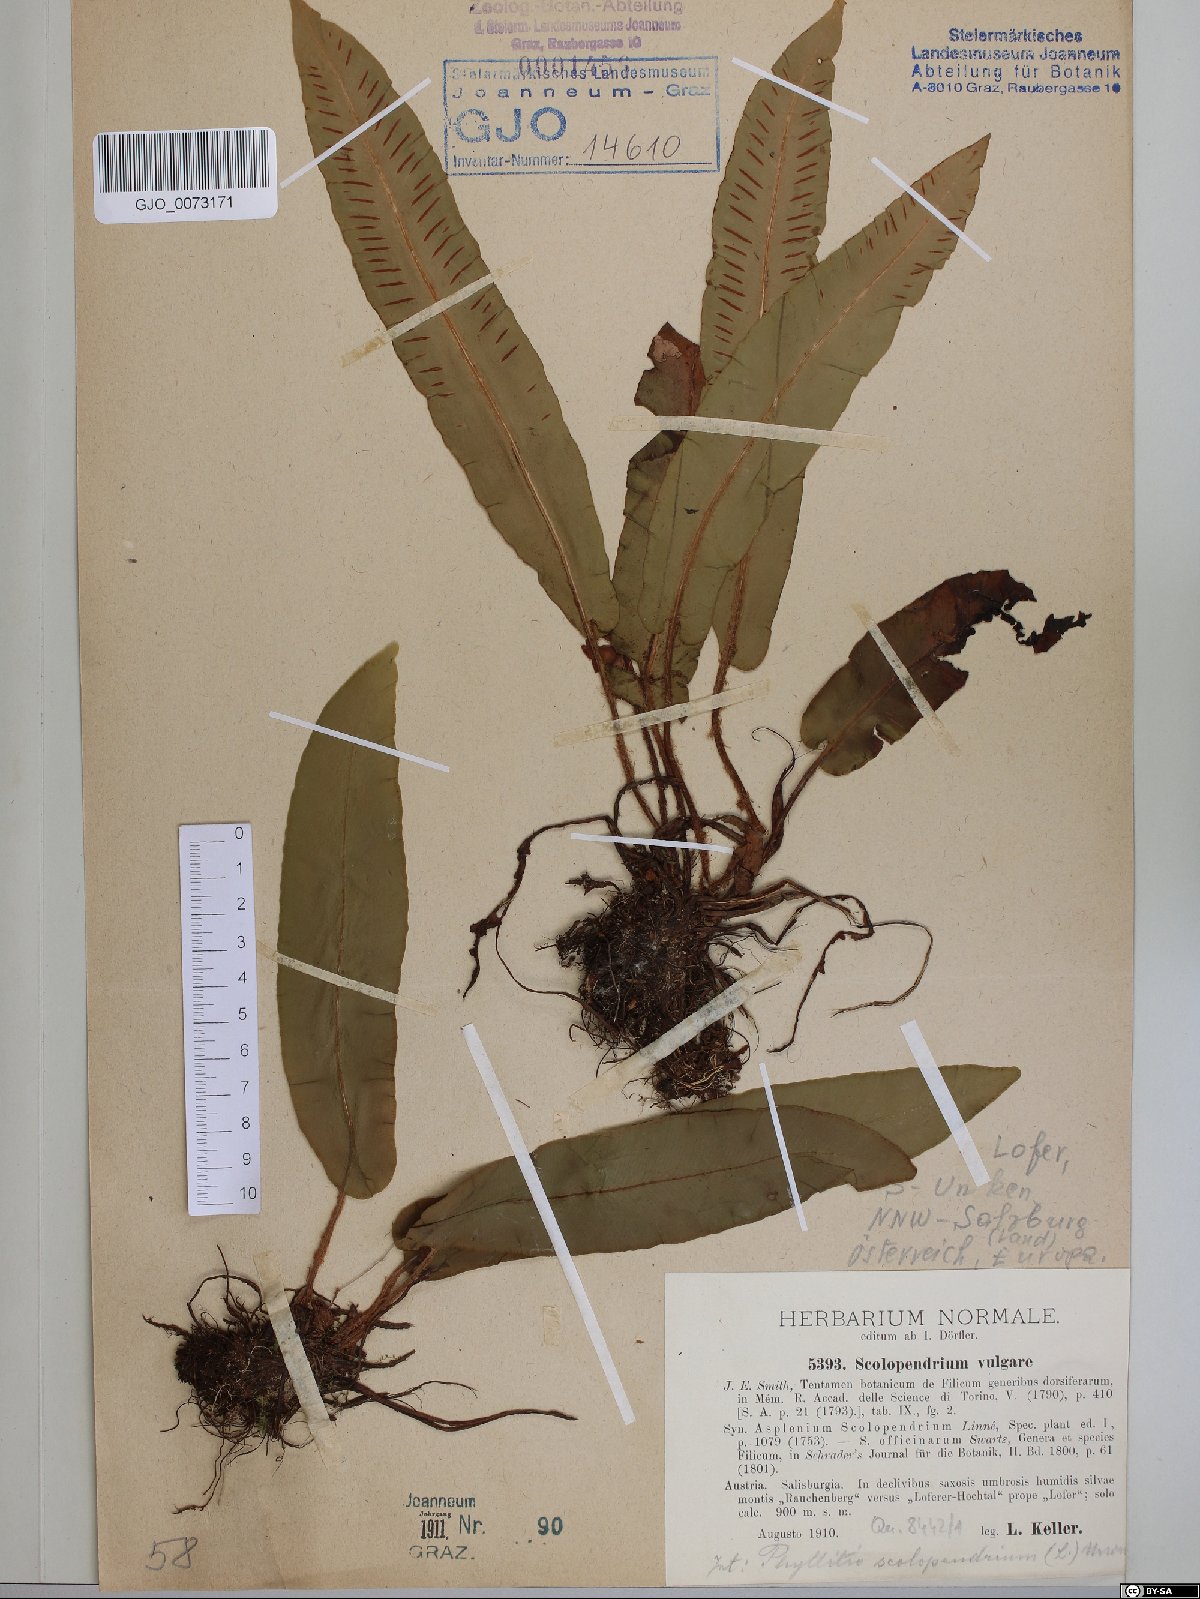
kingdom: Plantae
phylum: Tracheophyta
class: Polypodiopsida
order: Polypodiales
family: Aspleniaceae
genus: Asplenium
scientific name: Asplenium scolopendrium
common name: Hart's-tongue fern
